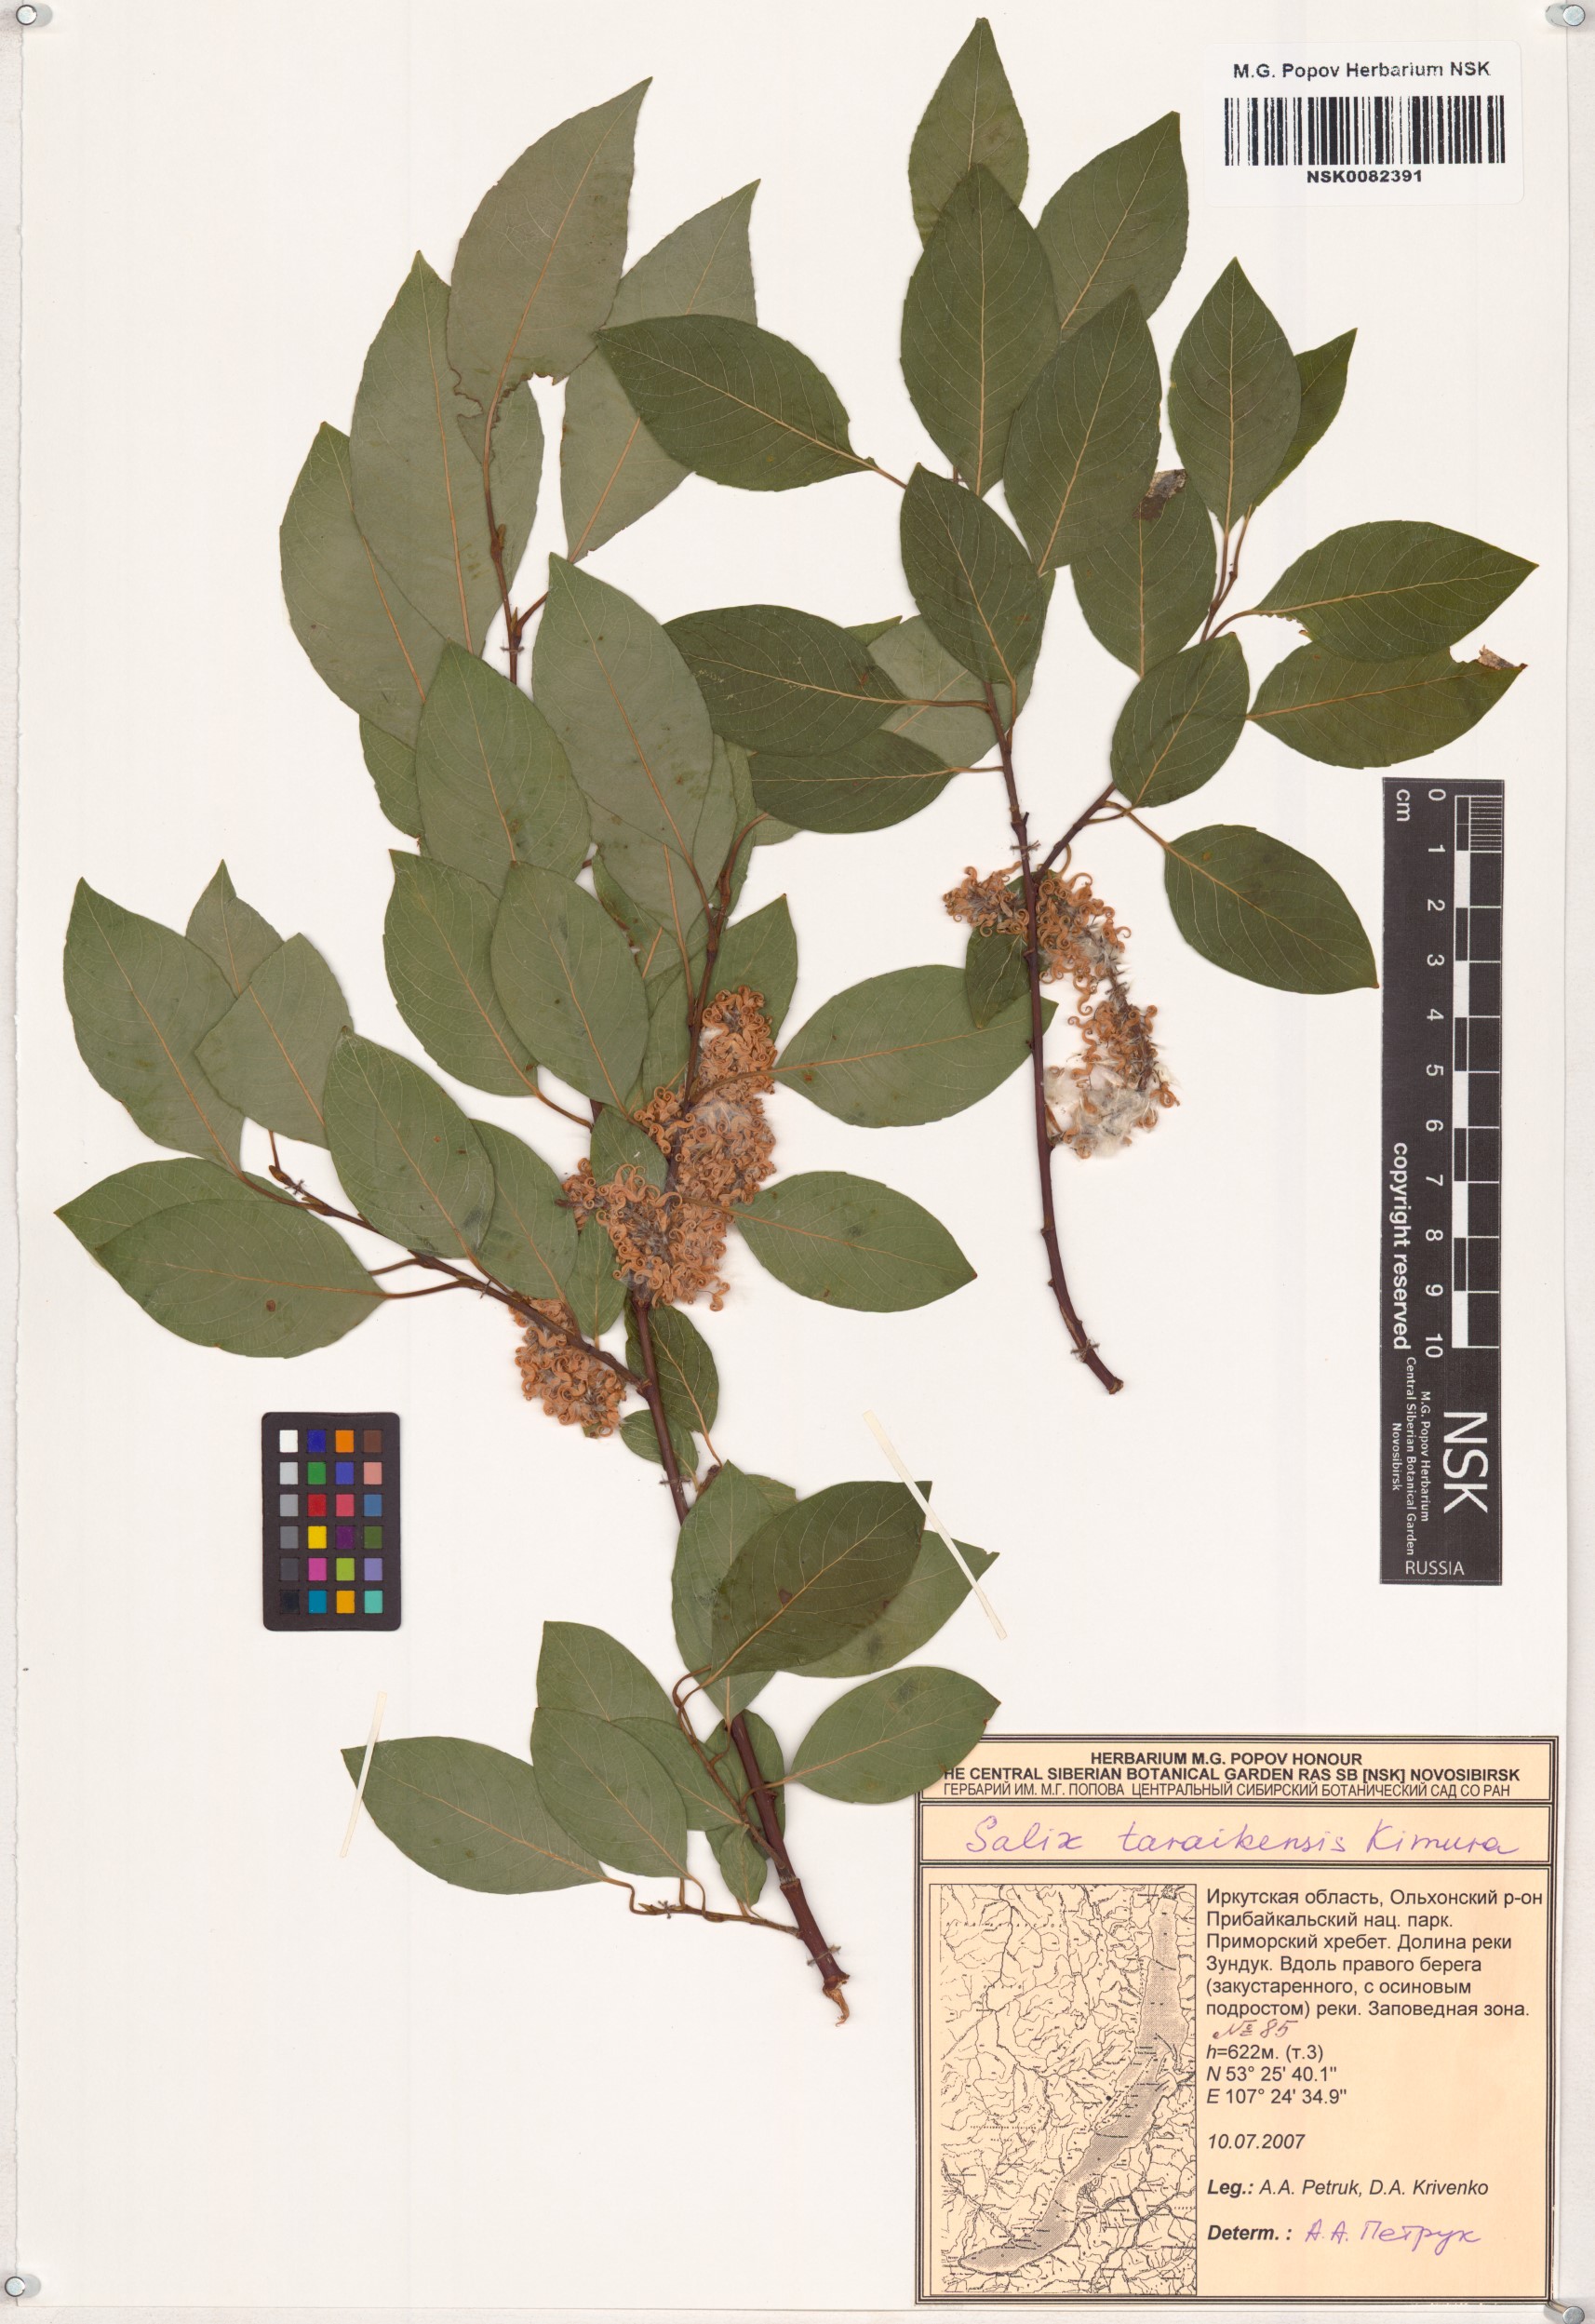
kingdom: Plantae
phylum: Tracheophyta
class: Magnoliopsida
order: Malpighiales
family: Salicaceae
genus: Salix
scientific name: Salix taraikensis
